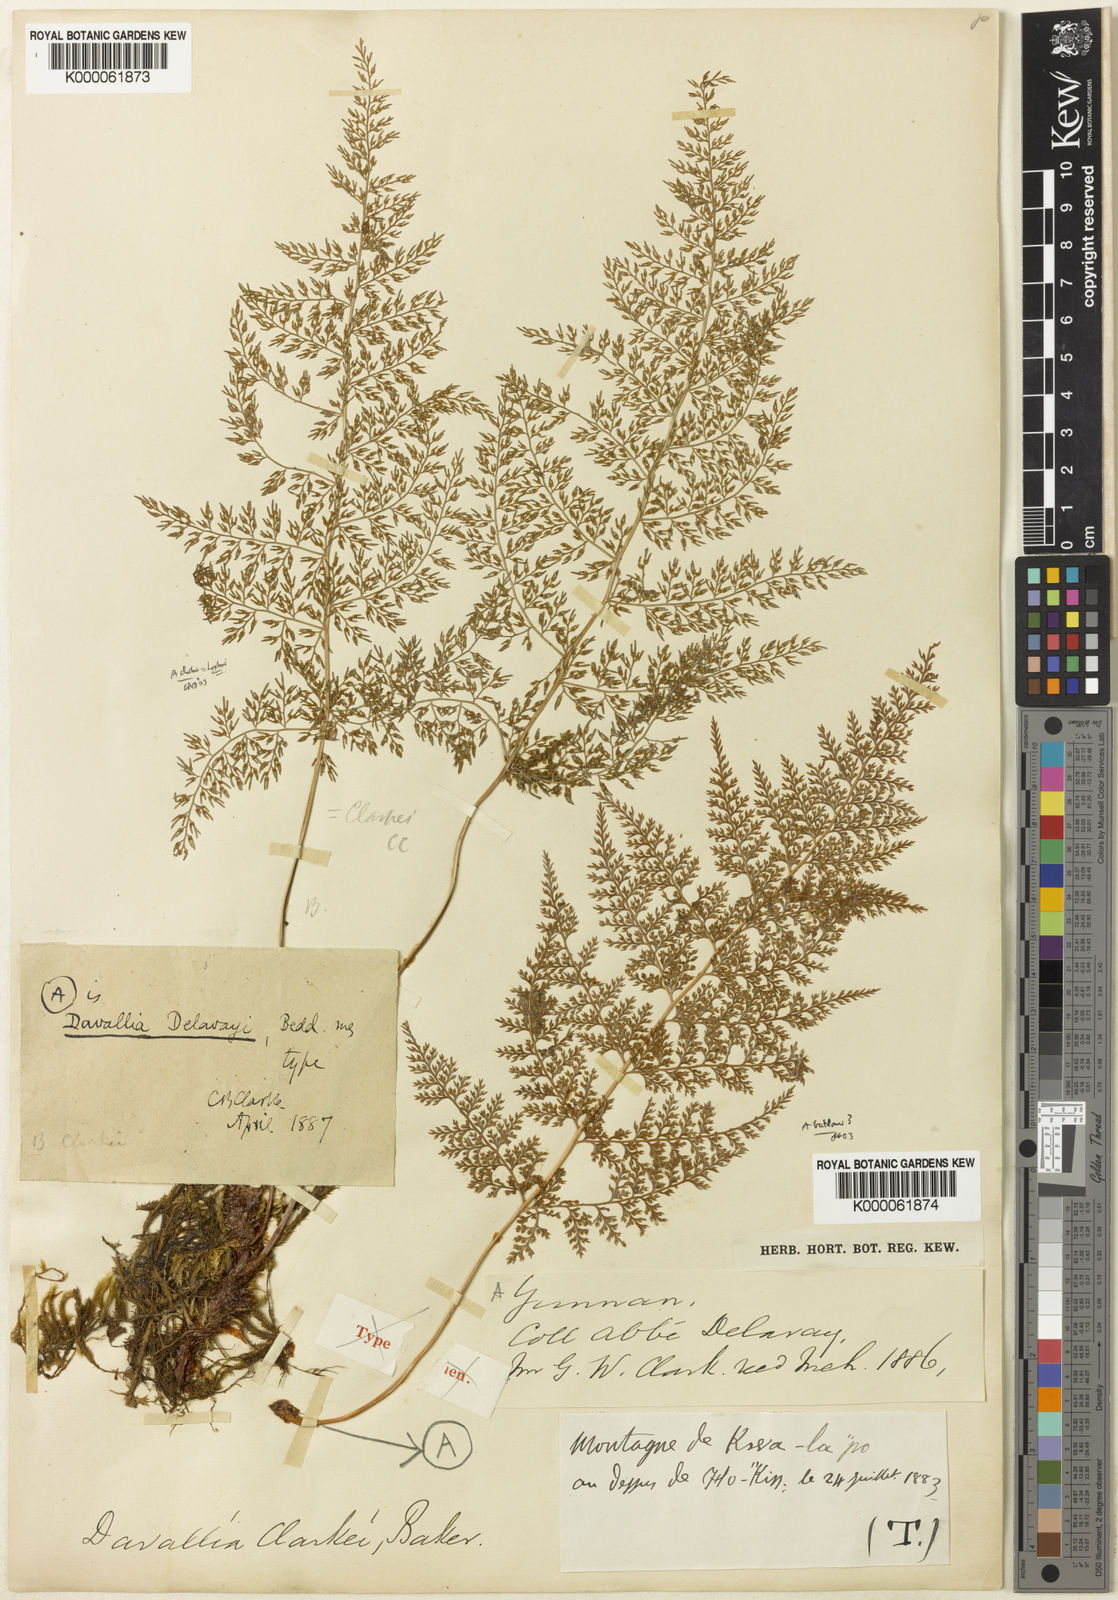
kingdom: Plantae
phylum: Tracheophyta
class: Polypodiopsida
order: Polypodiales
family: Davalliaceae
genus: Davallodes
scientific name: Davallodes beddomei
